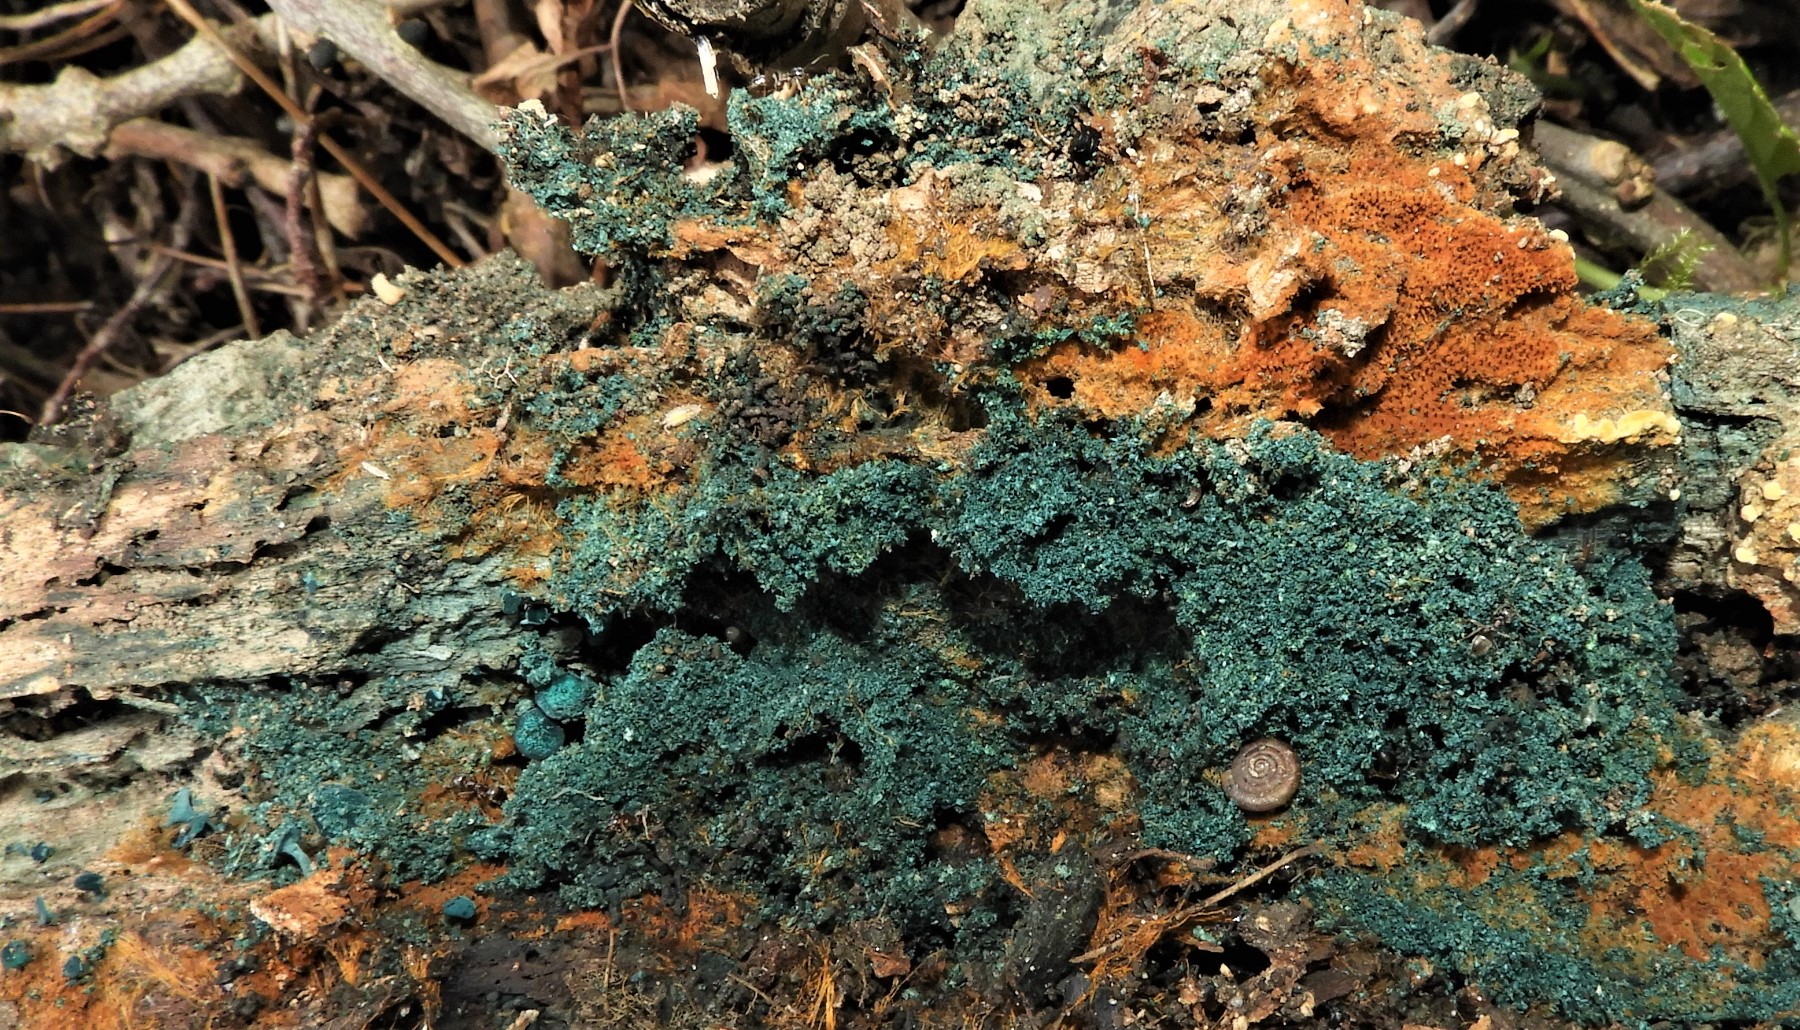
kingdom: Fungi
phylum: Ascomycota
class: Leotiomycetes
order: Helotiales
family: Chlorociboriaceae
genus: Chlorociboria
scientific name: Chlorociboria aeruginascens
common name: almindelig grønskive
